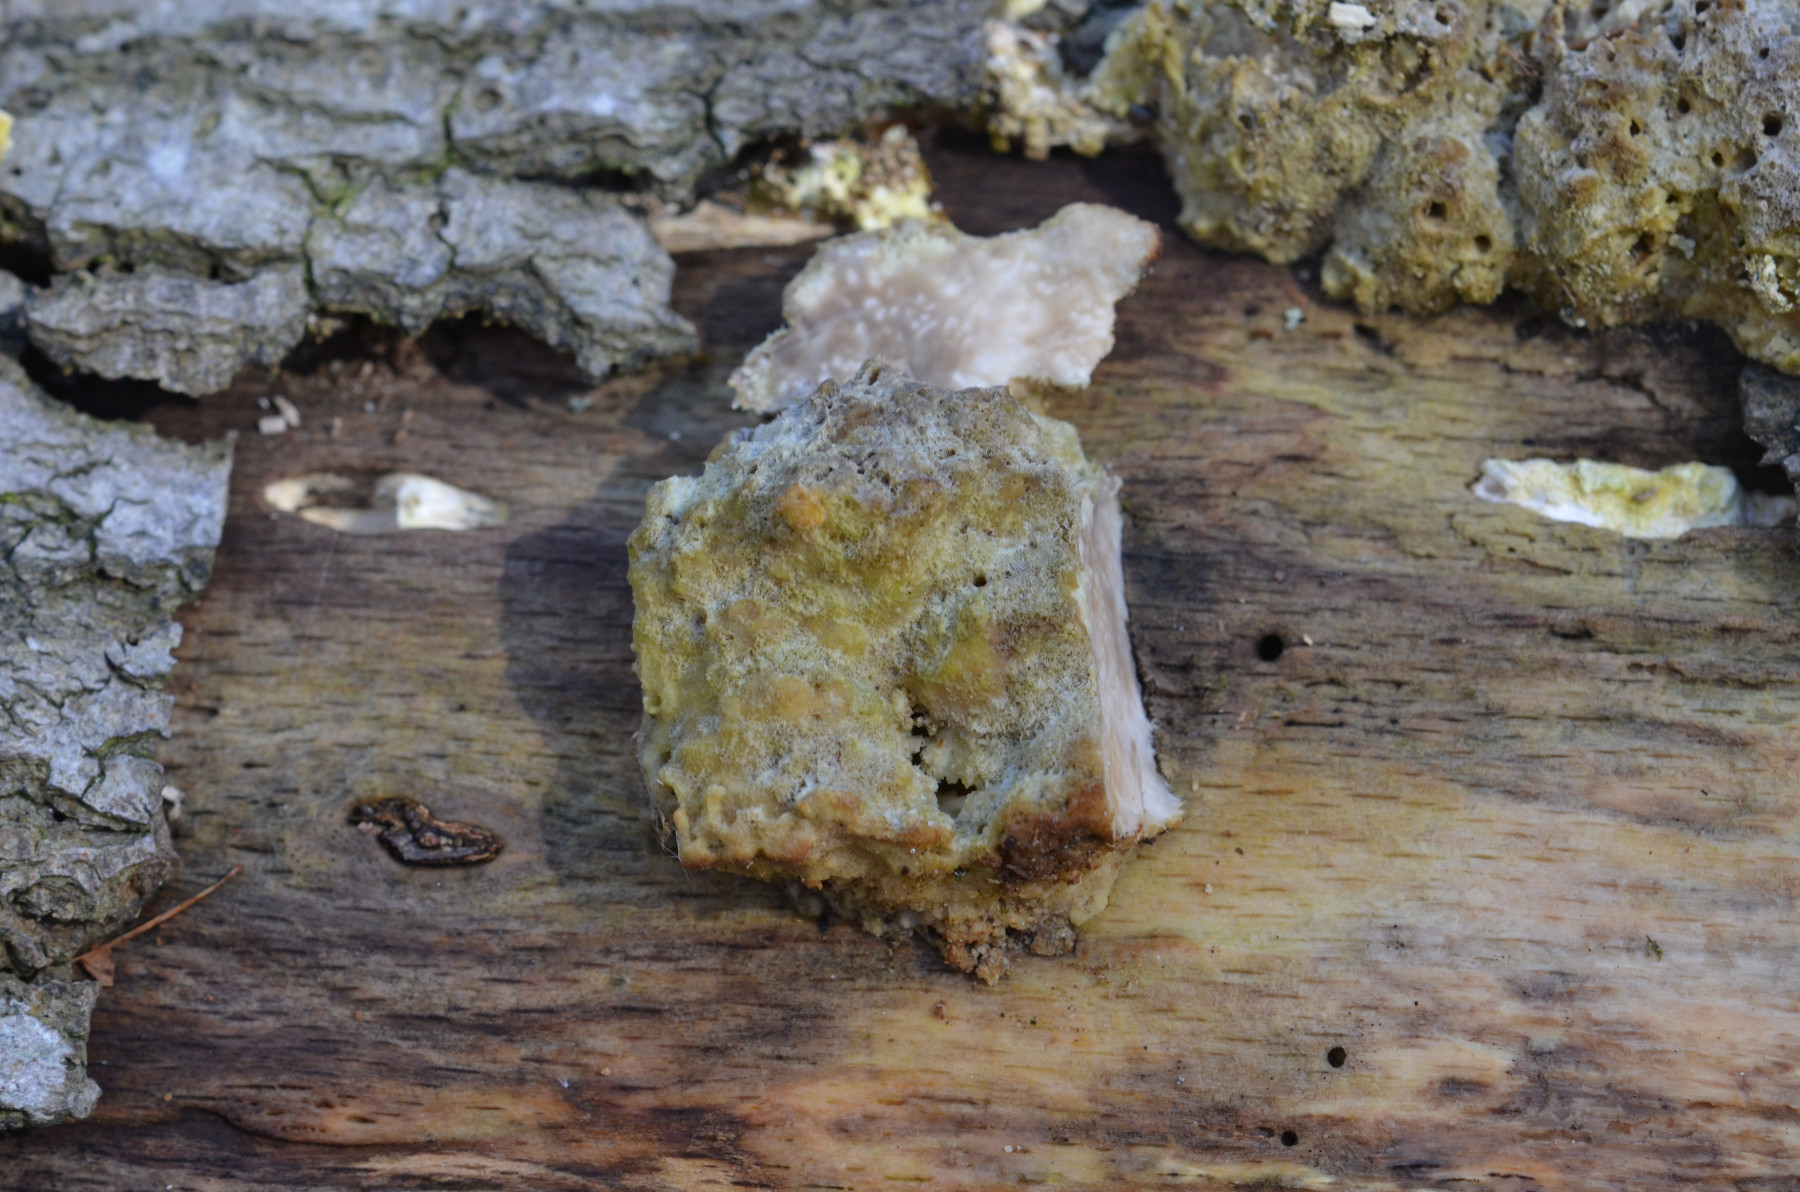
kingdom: Fungi
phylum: Basidiomycota
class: Agaricomycetes
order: Polyporales
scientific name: Polyporales
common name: poresvampordenen
